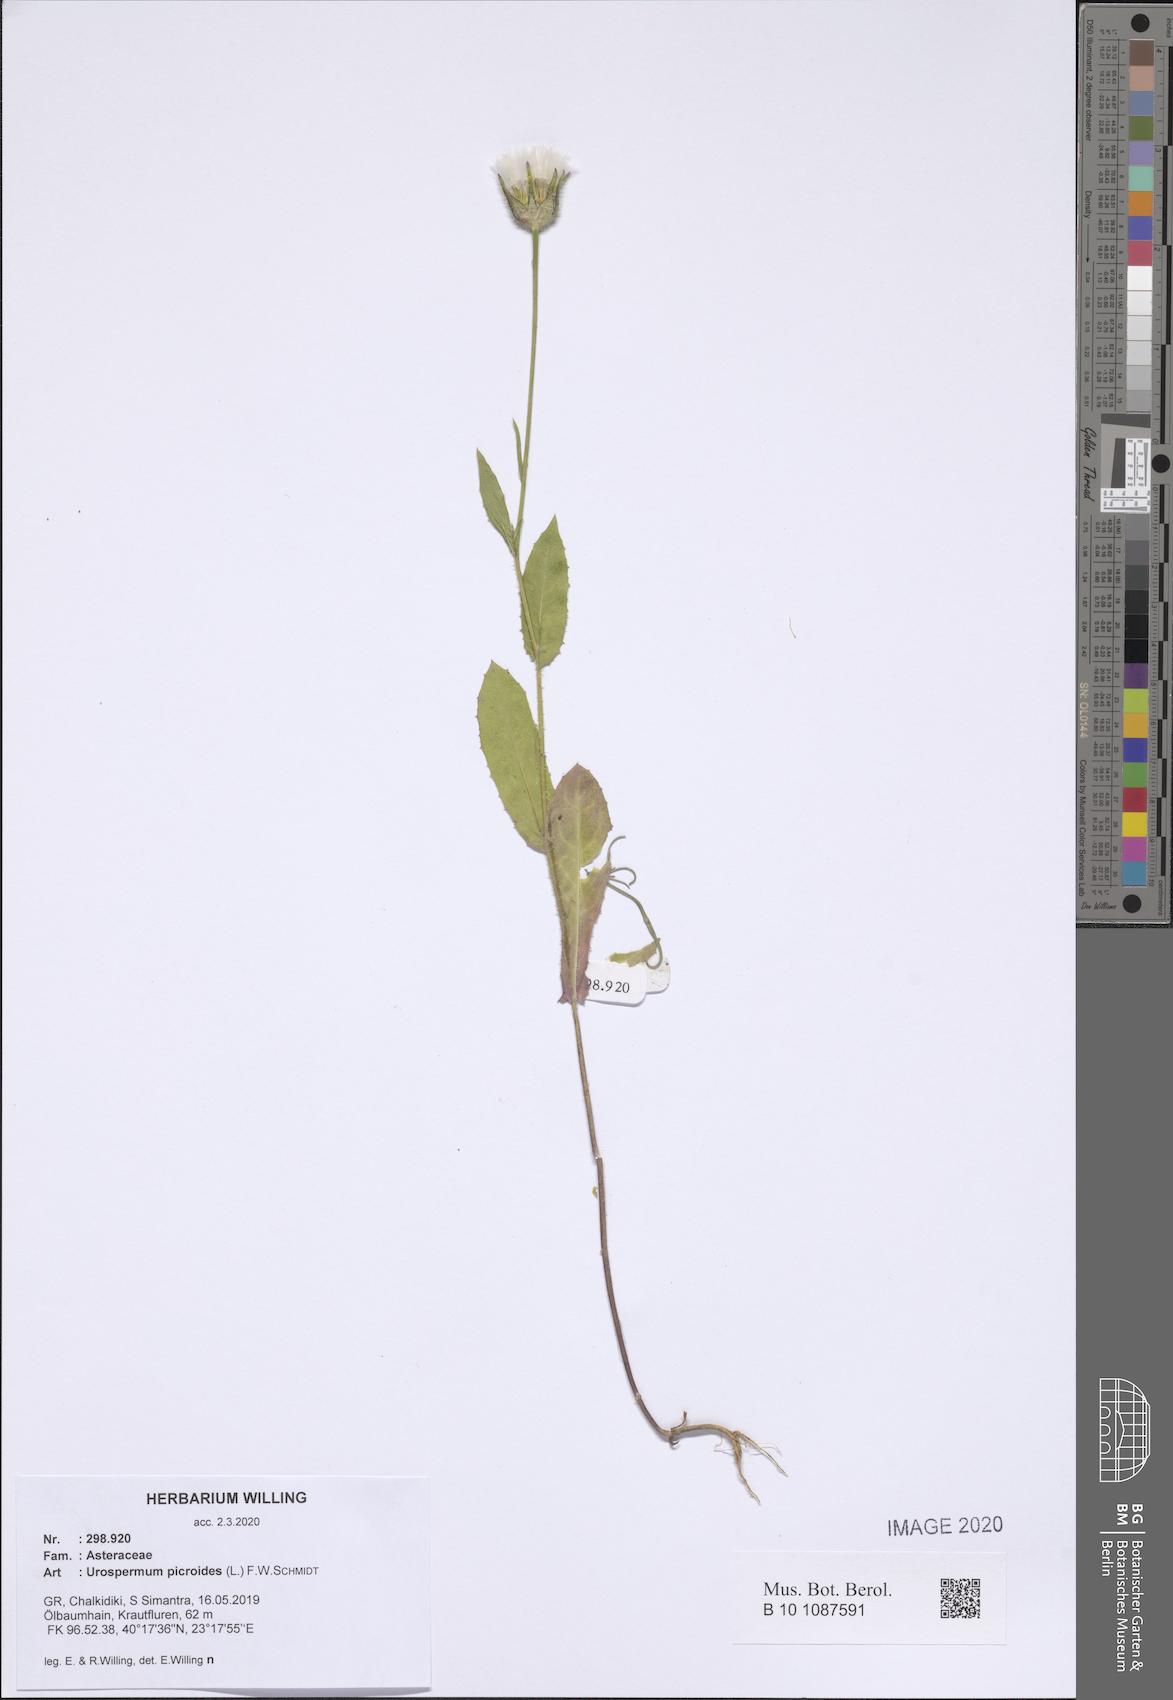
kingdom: Plantae
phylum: Tracheophyta
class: Magnoliopsida
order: Asterales
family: Asteraceae
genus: Urospermum
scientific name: Urospermum picroides
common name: False hawkbit
